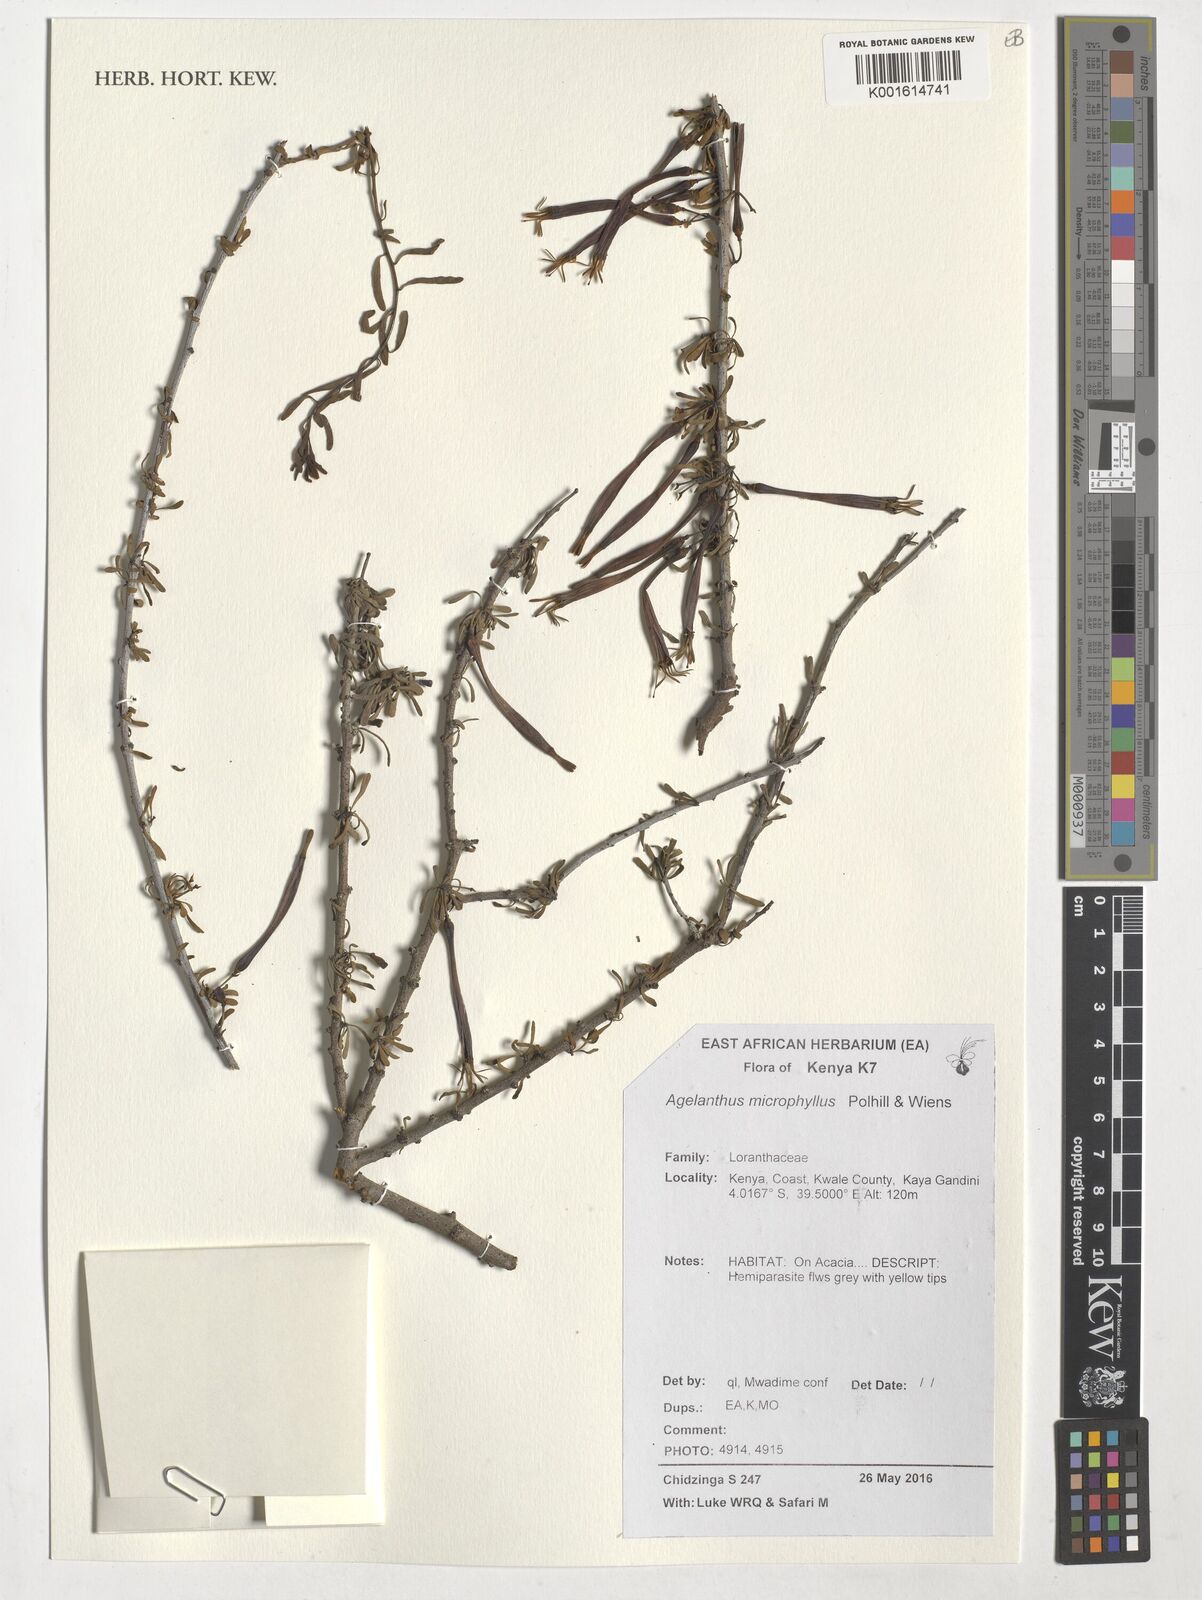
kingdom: Plantae
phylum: Tracheophyta
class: Magnoliopsida
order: Santalales
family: Loranthaceae
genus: Agelanthus
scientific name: Agelanthus microphyllus
